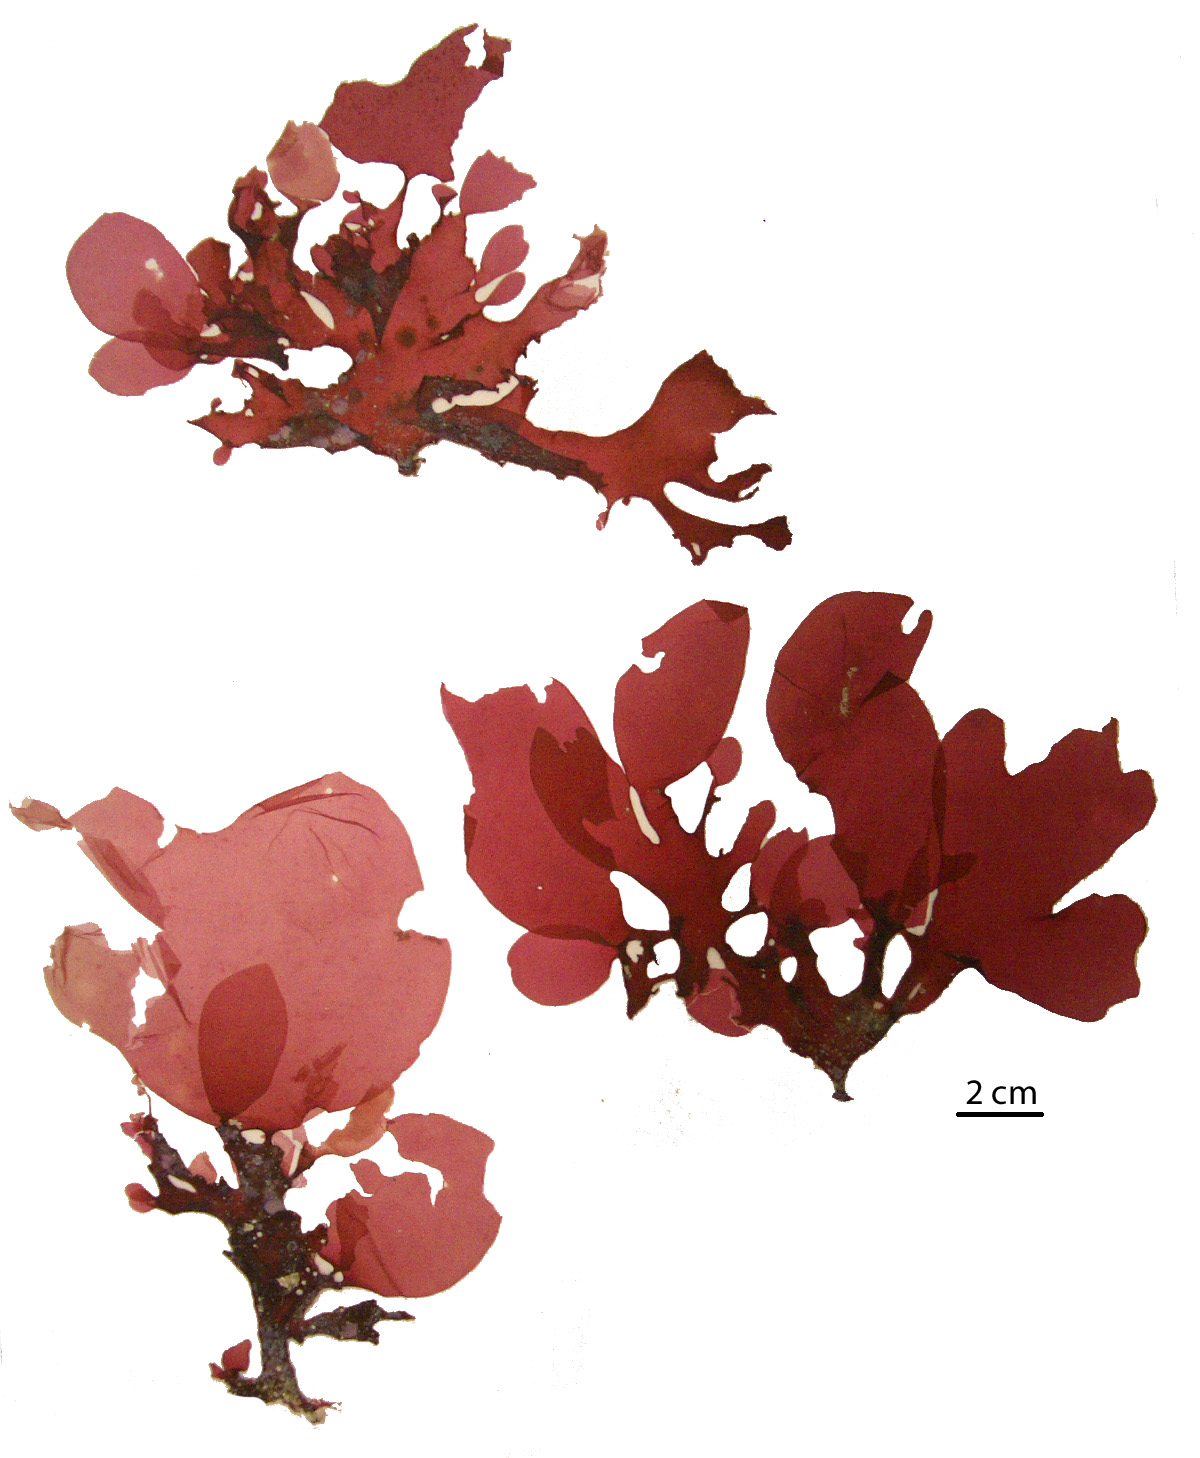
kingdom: Plantae
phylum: Rhodophyta
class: Florideophyceae
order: Gigartinales
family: Kallymeniaceae
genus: Psaromenia
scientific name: Psaromenia berggrenii
